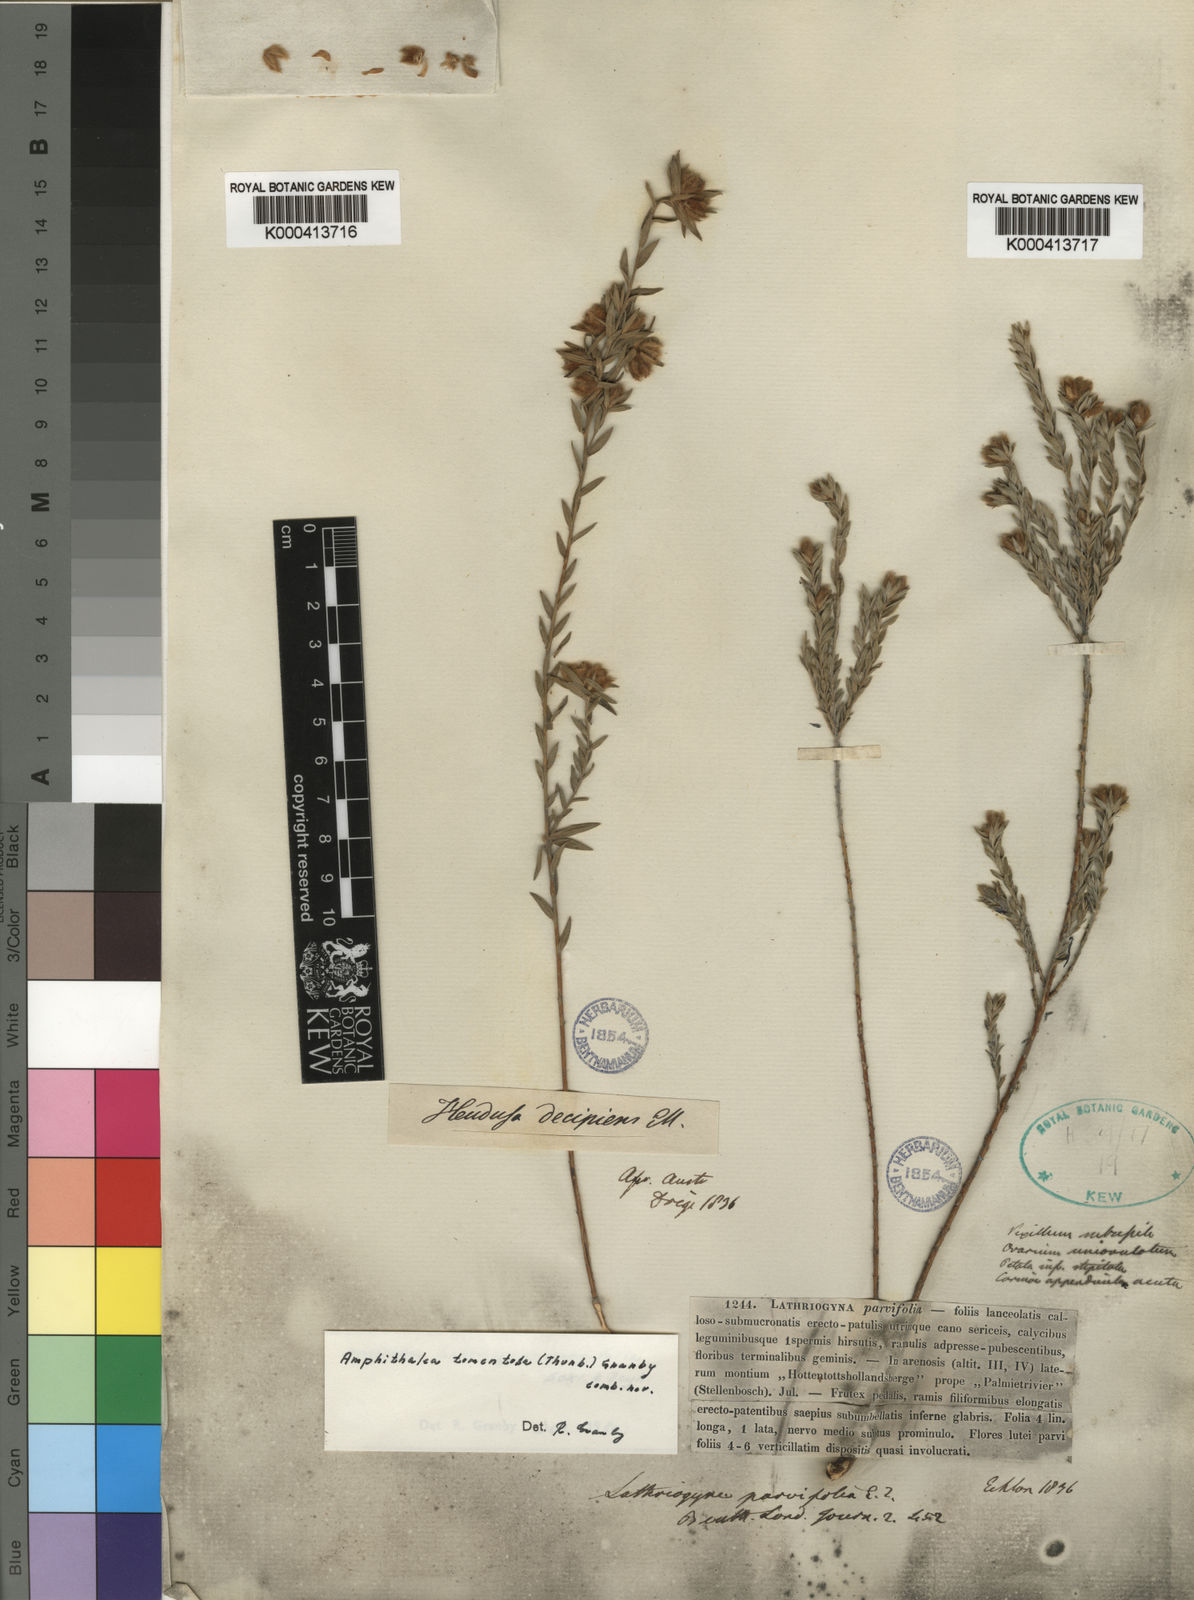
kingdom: Plantae
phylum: Tracheophyta
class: Magnoliopsida
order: Fabales
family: Fabaceae
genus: Amphithalea
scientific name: Amphithalea
